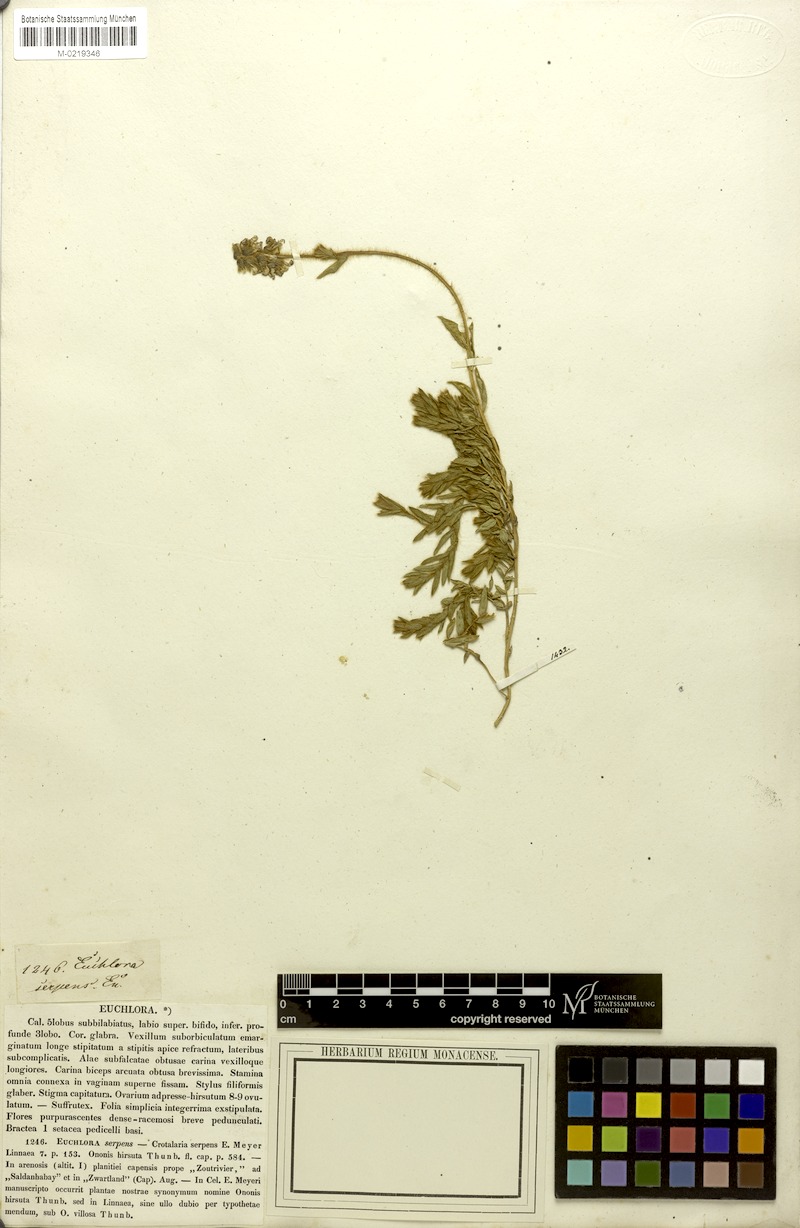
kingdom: Plantae
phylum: Tracheophyta
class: Magnoliopsida
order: Fabales
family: Fabaceae
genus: Euchlora
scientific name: Euchlora hirsuta
